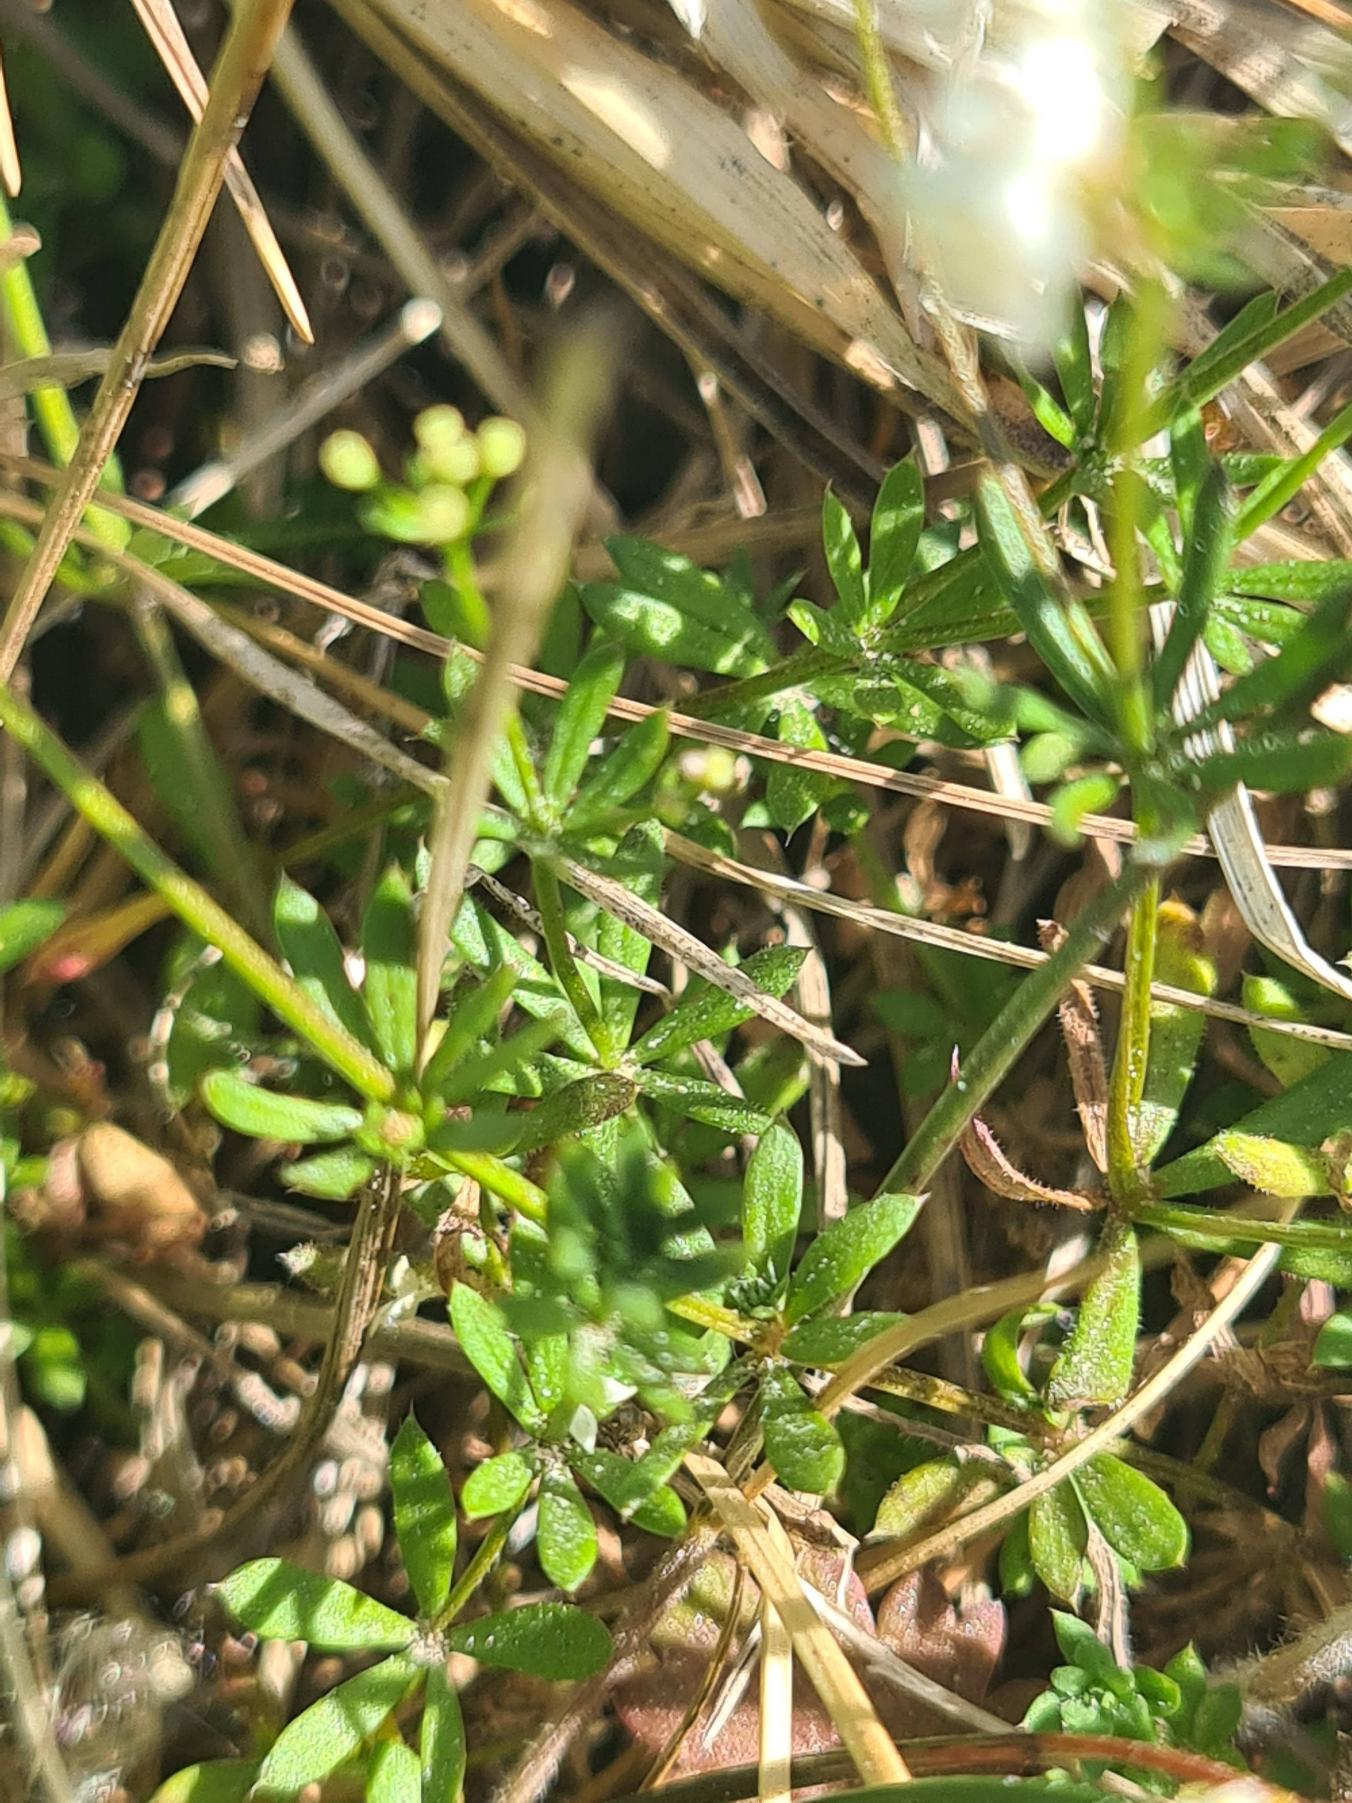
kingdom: Plantae
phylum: Tracheophyta
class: Magnoliopsida
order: Gentianales
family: Rubiaceae
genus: Galium
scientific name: Galium sterneri
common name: Liden snerre
